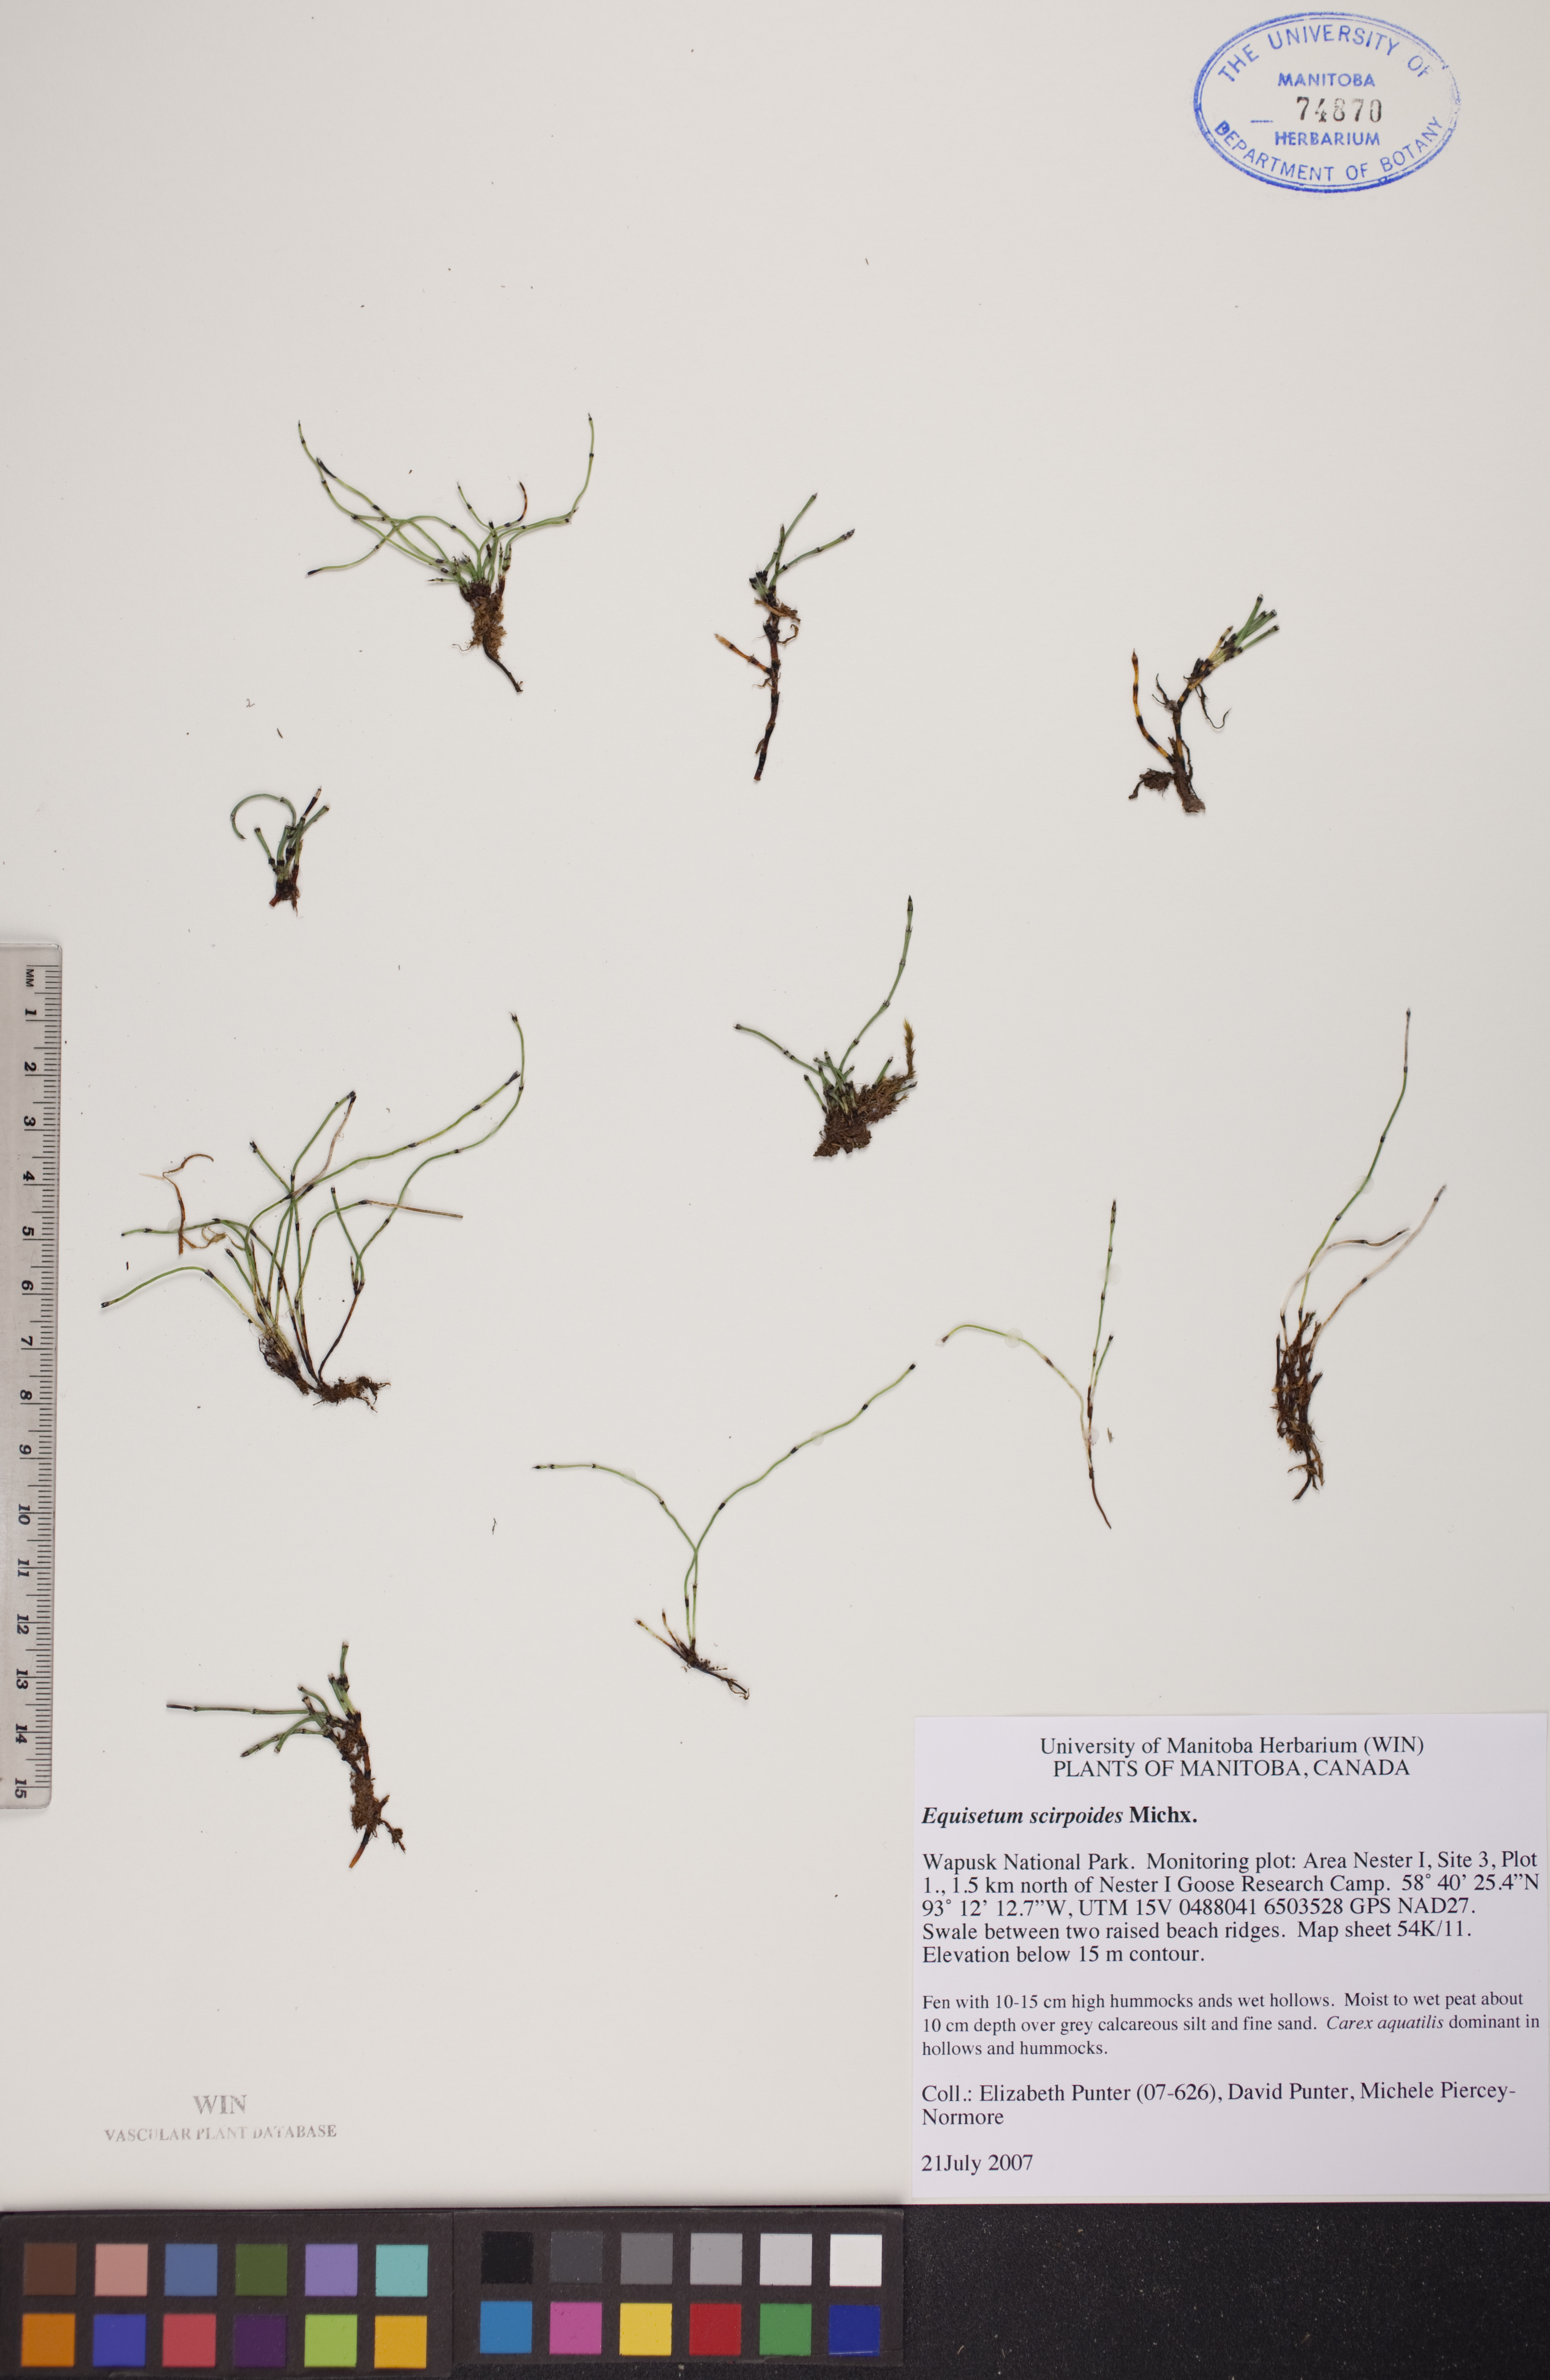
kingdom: Plantae
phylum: Tracheophyta
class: Polypodiopsida
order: Equisetales
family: Equisetaceae
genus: Equisetum
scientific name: Equisetum scirpoides
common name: Delicate horsetail
